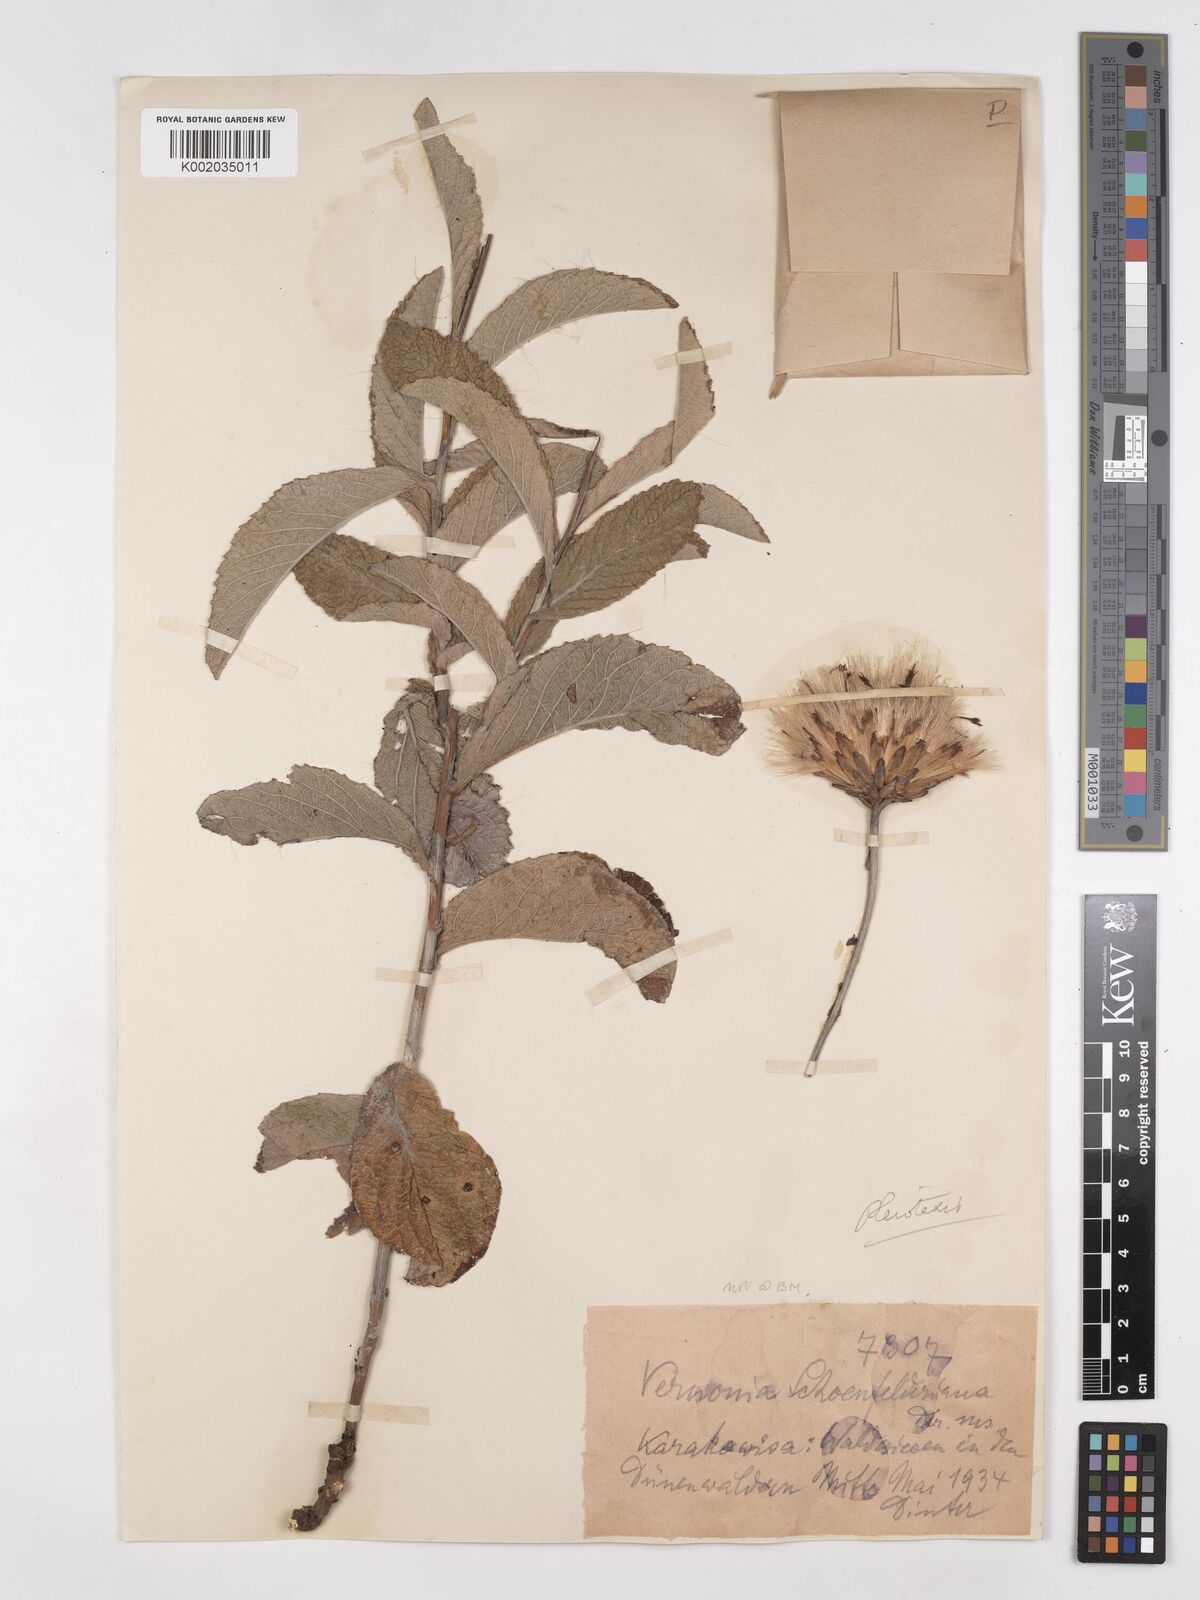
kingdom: Plantae
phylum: Tracheophyta
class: Magnoliopsida
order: Asterales
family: Asteraceae
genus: Pleiotaxis
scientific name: Pleiotaxis antunesii
